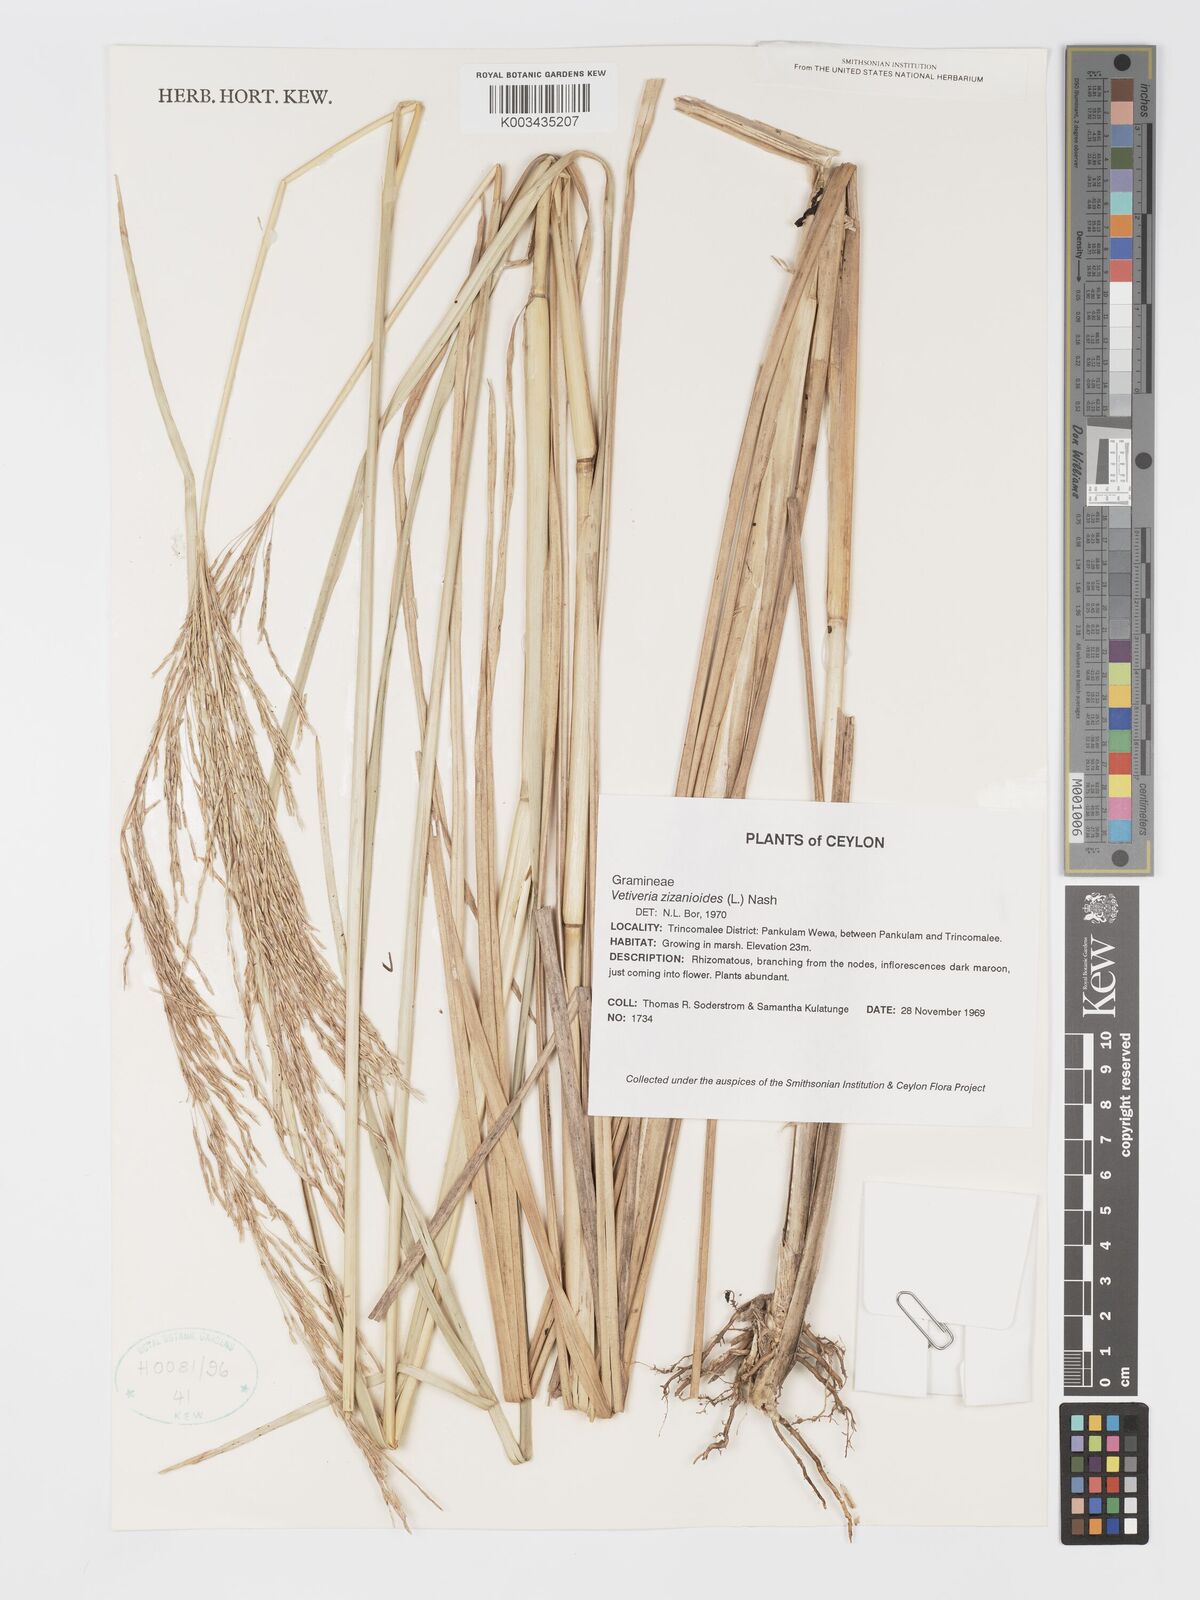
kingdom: Plantae
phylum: Tracheophyta
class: Liliopsida
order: Poales
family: Poaceae
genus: Chrysopogon
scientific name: Chrysopogon zizanioides
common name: False beardgrass
